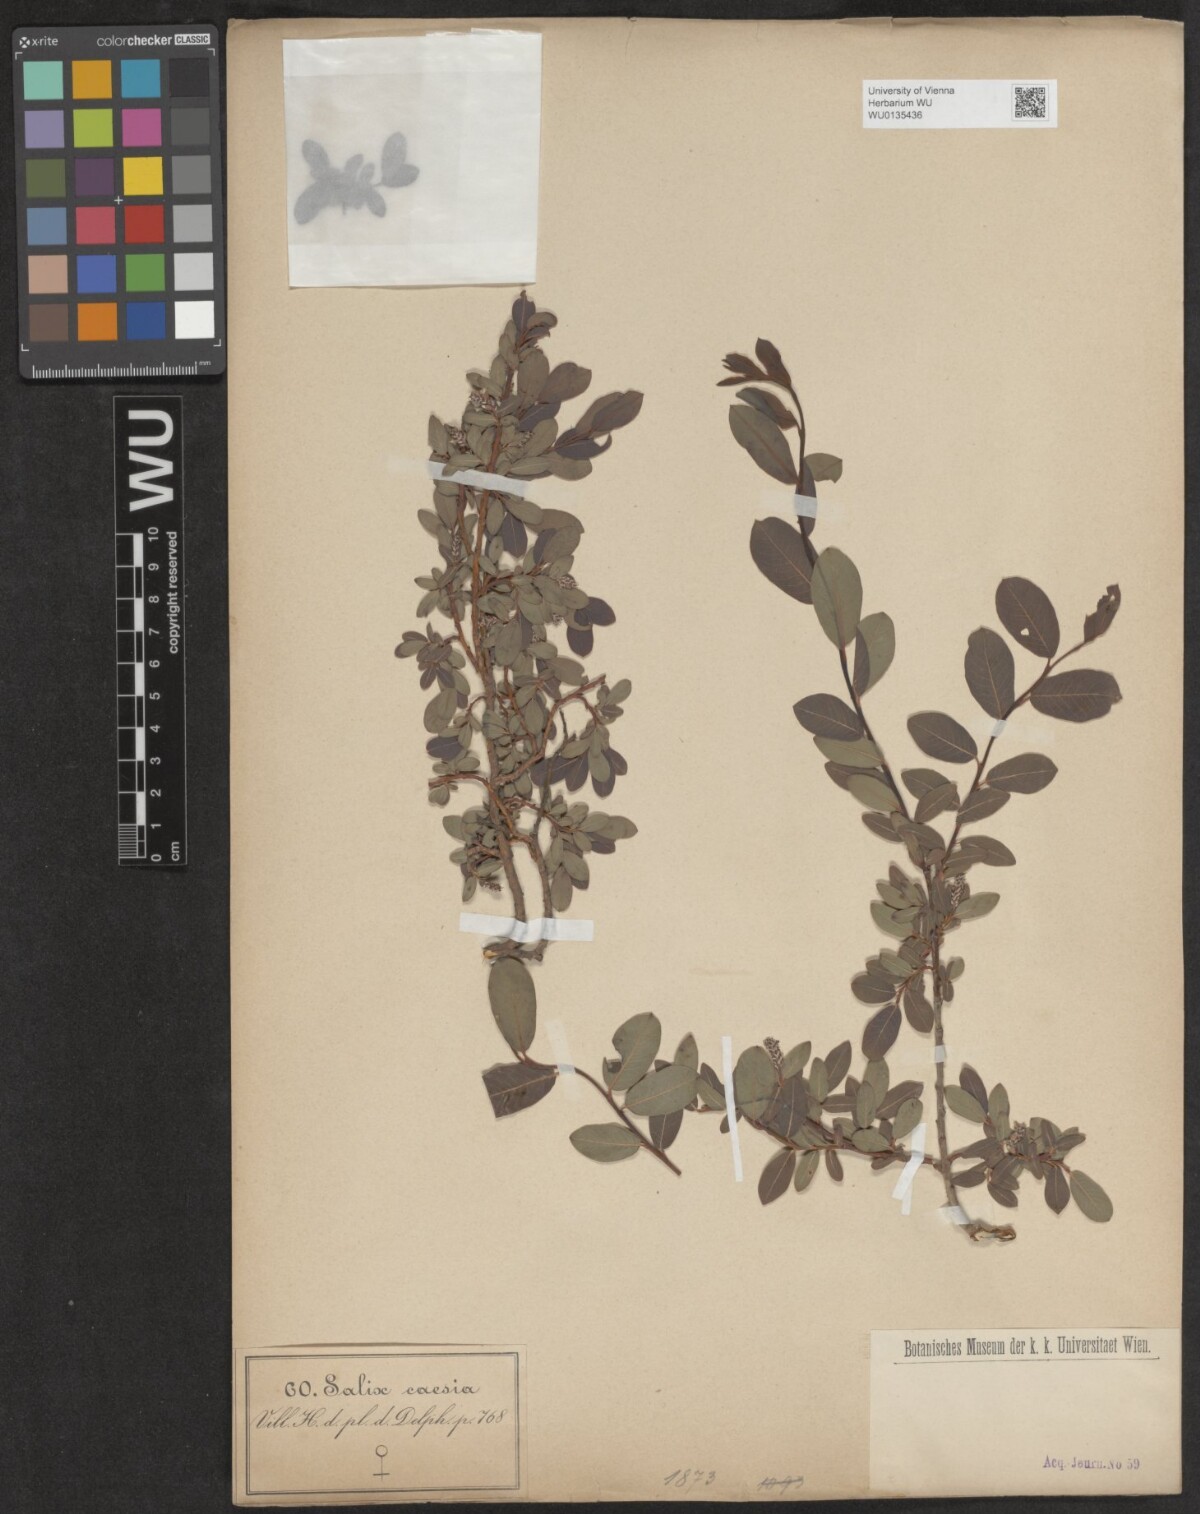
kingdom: Plantae
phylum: Tracheophyta
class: Magnoliopsida
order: Malpighiales
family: Salicaceae
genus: Salix
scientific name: Salix caesia
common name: Blue willow
